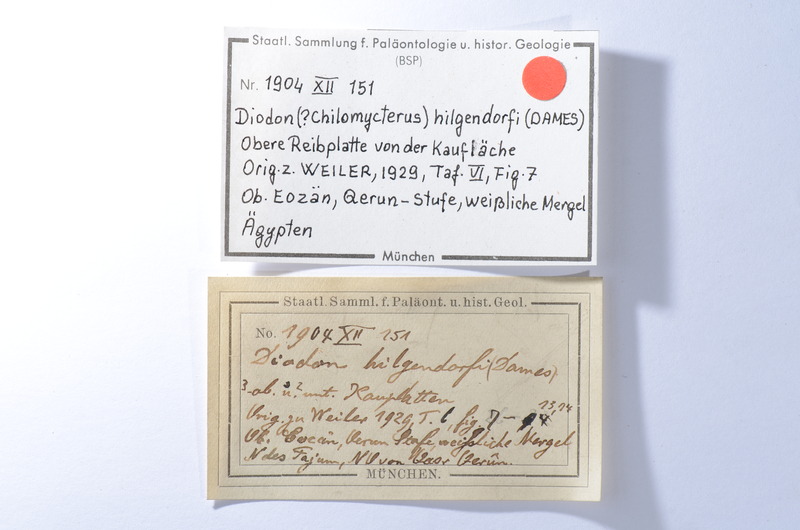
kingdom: Animalia
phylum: Chordata
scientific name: Chordata
